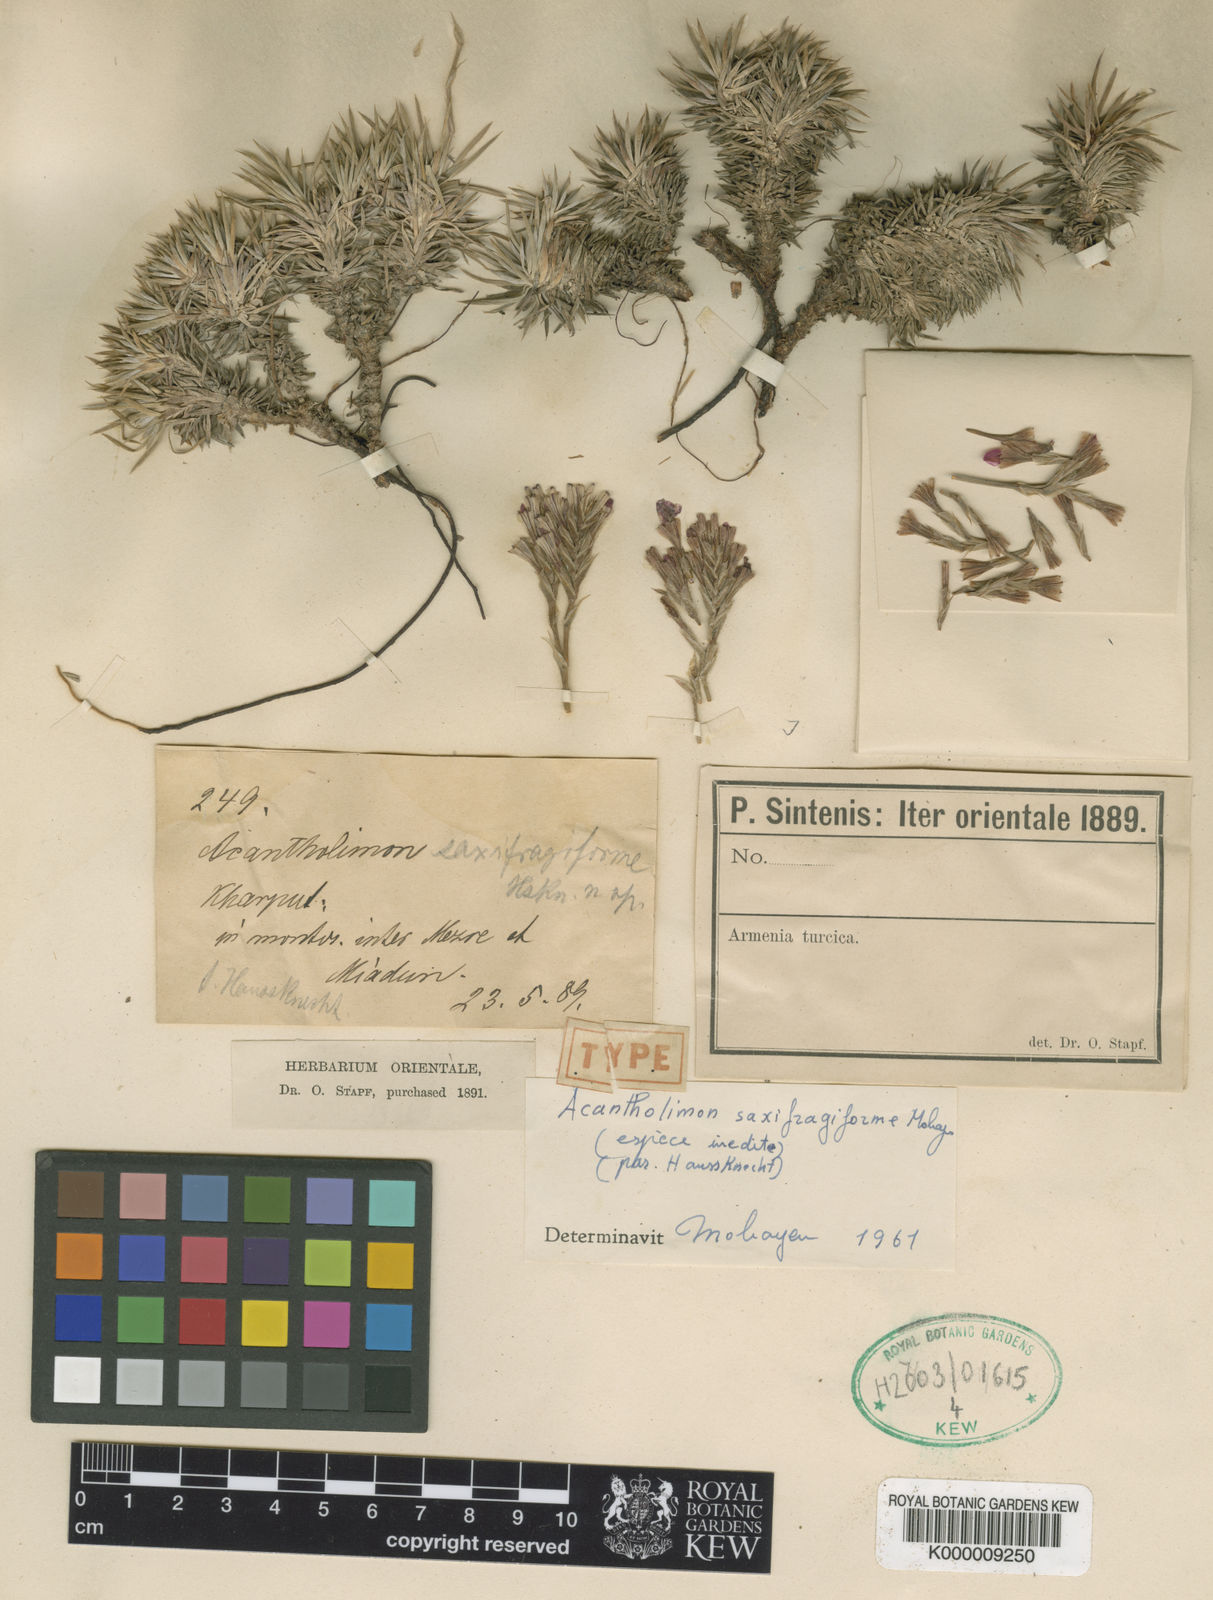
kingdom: Plantae
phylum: Tracheophyta
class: Magnoliopsida
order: Caryophyllales
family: Plumbaginaceae
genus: Acantholimon
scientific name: Acantholimon
